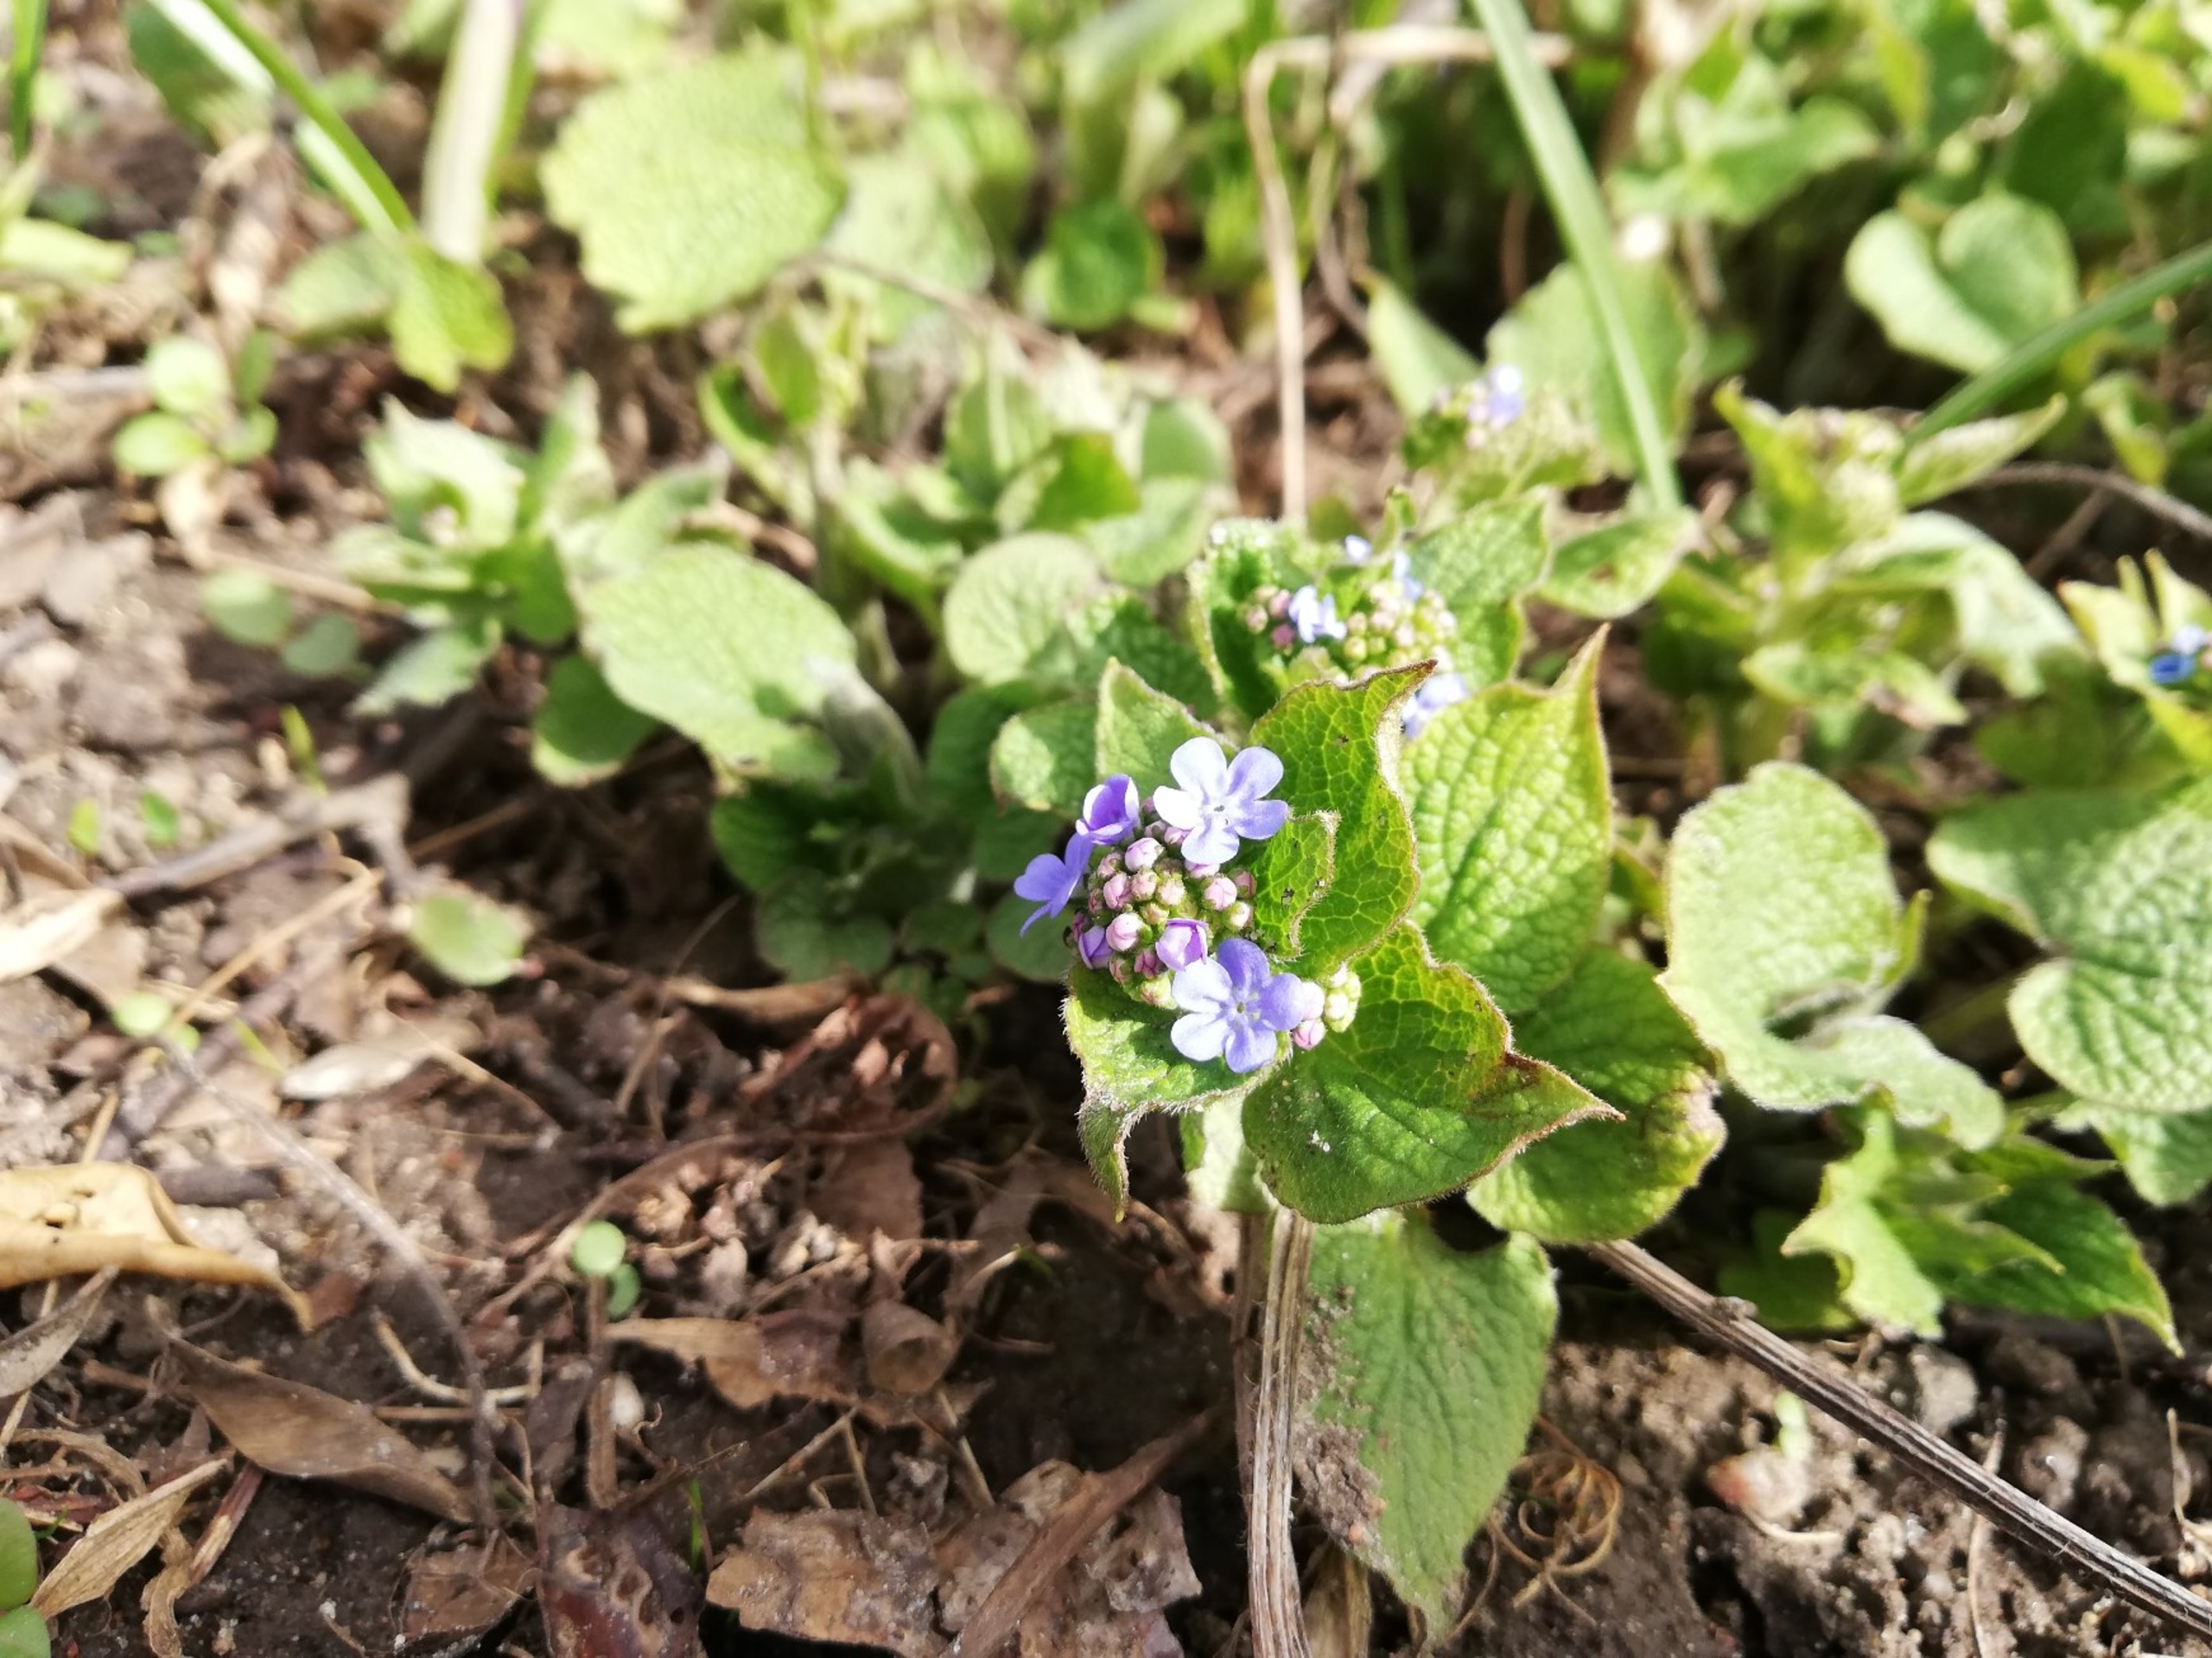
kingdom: Plantae
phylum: Tracheophyta
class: Magnoliopsida
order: Boraginales
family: Boraginaceae
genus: Brunnera
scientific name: Brunnera macrophylla
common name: Kærmindesøster
